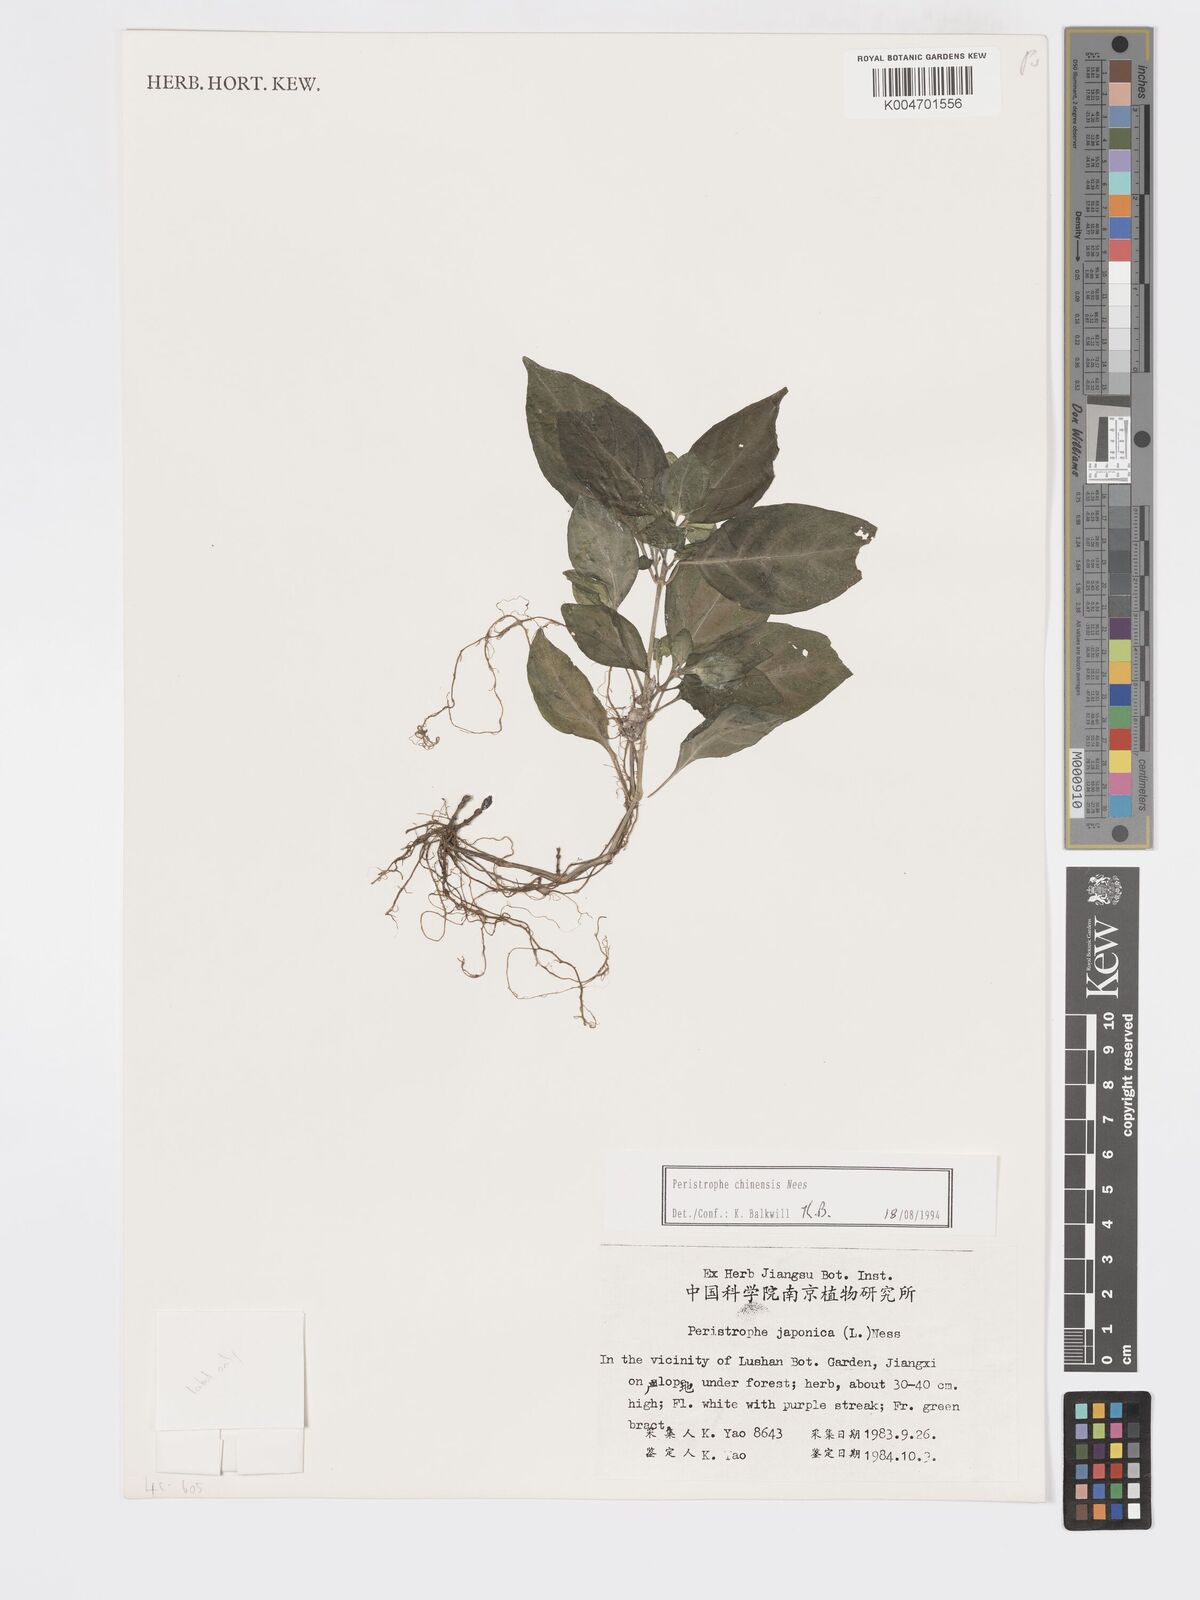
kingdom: Plantae
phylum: Tracheophyta
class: Magnoliopsida
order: Lamiales
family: Acanthaceae
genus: Dicliptera
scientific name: Dicliptera chinensis
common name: Chinese foldwing
